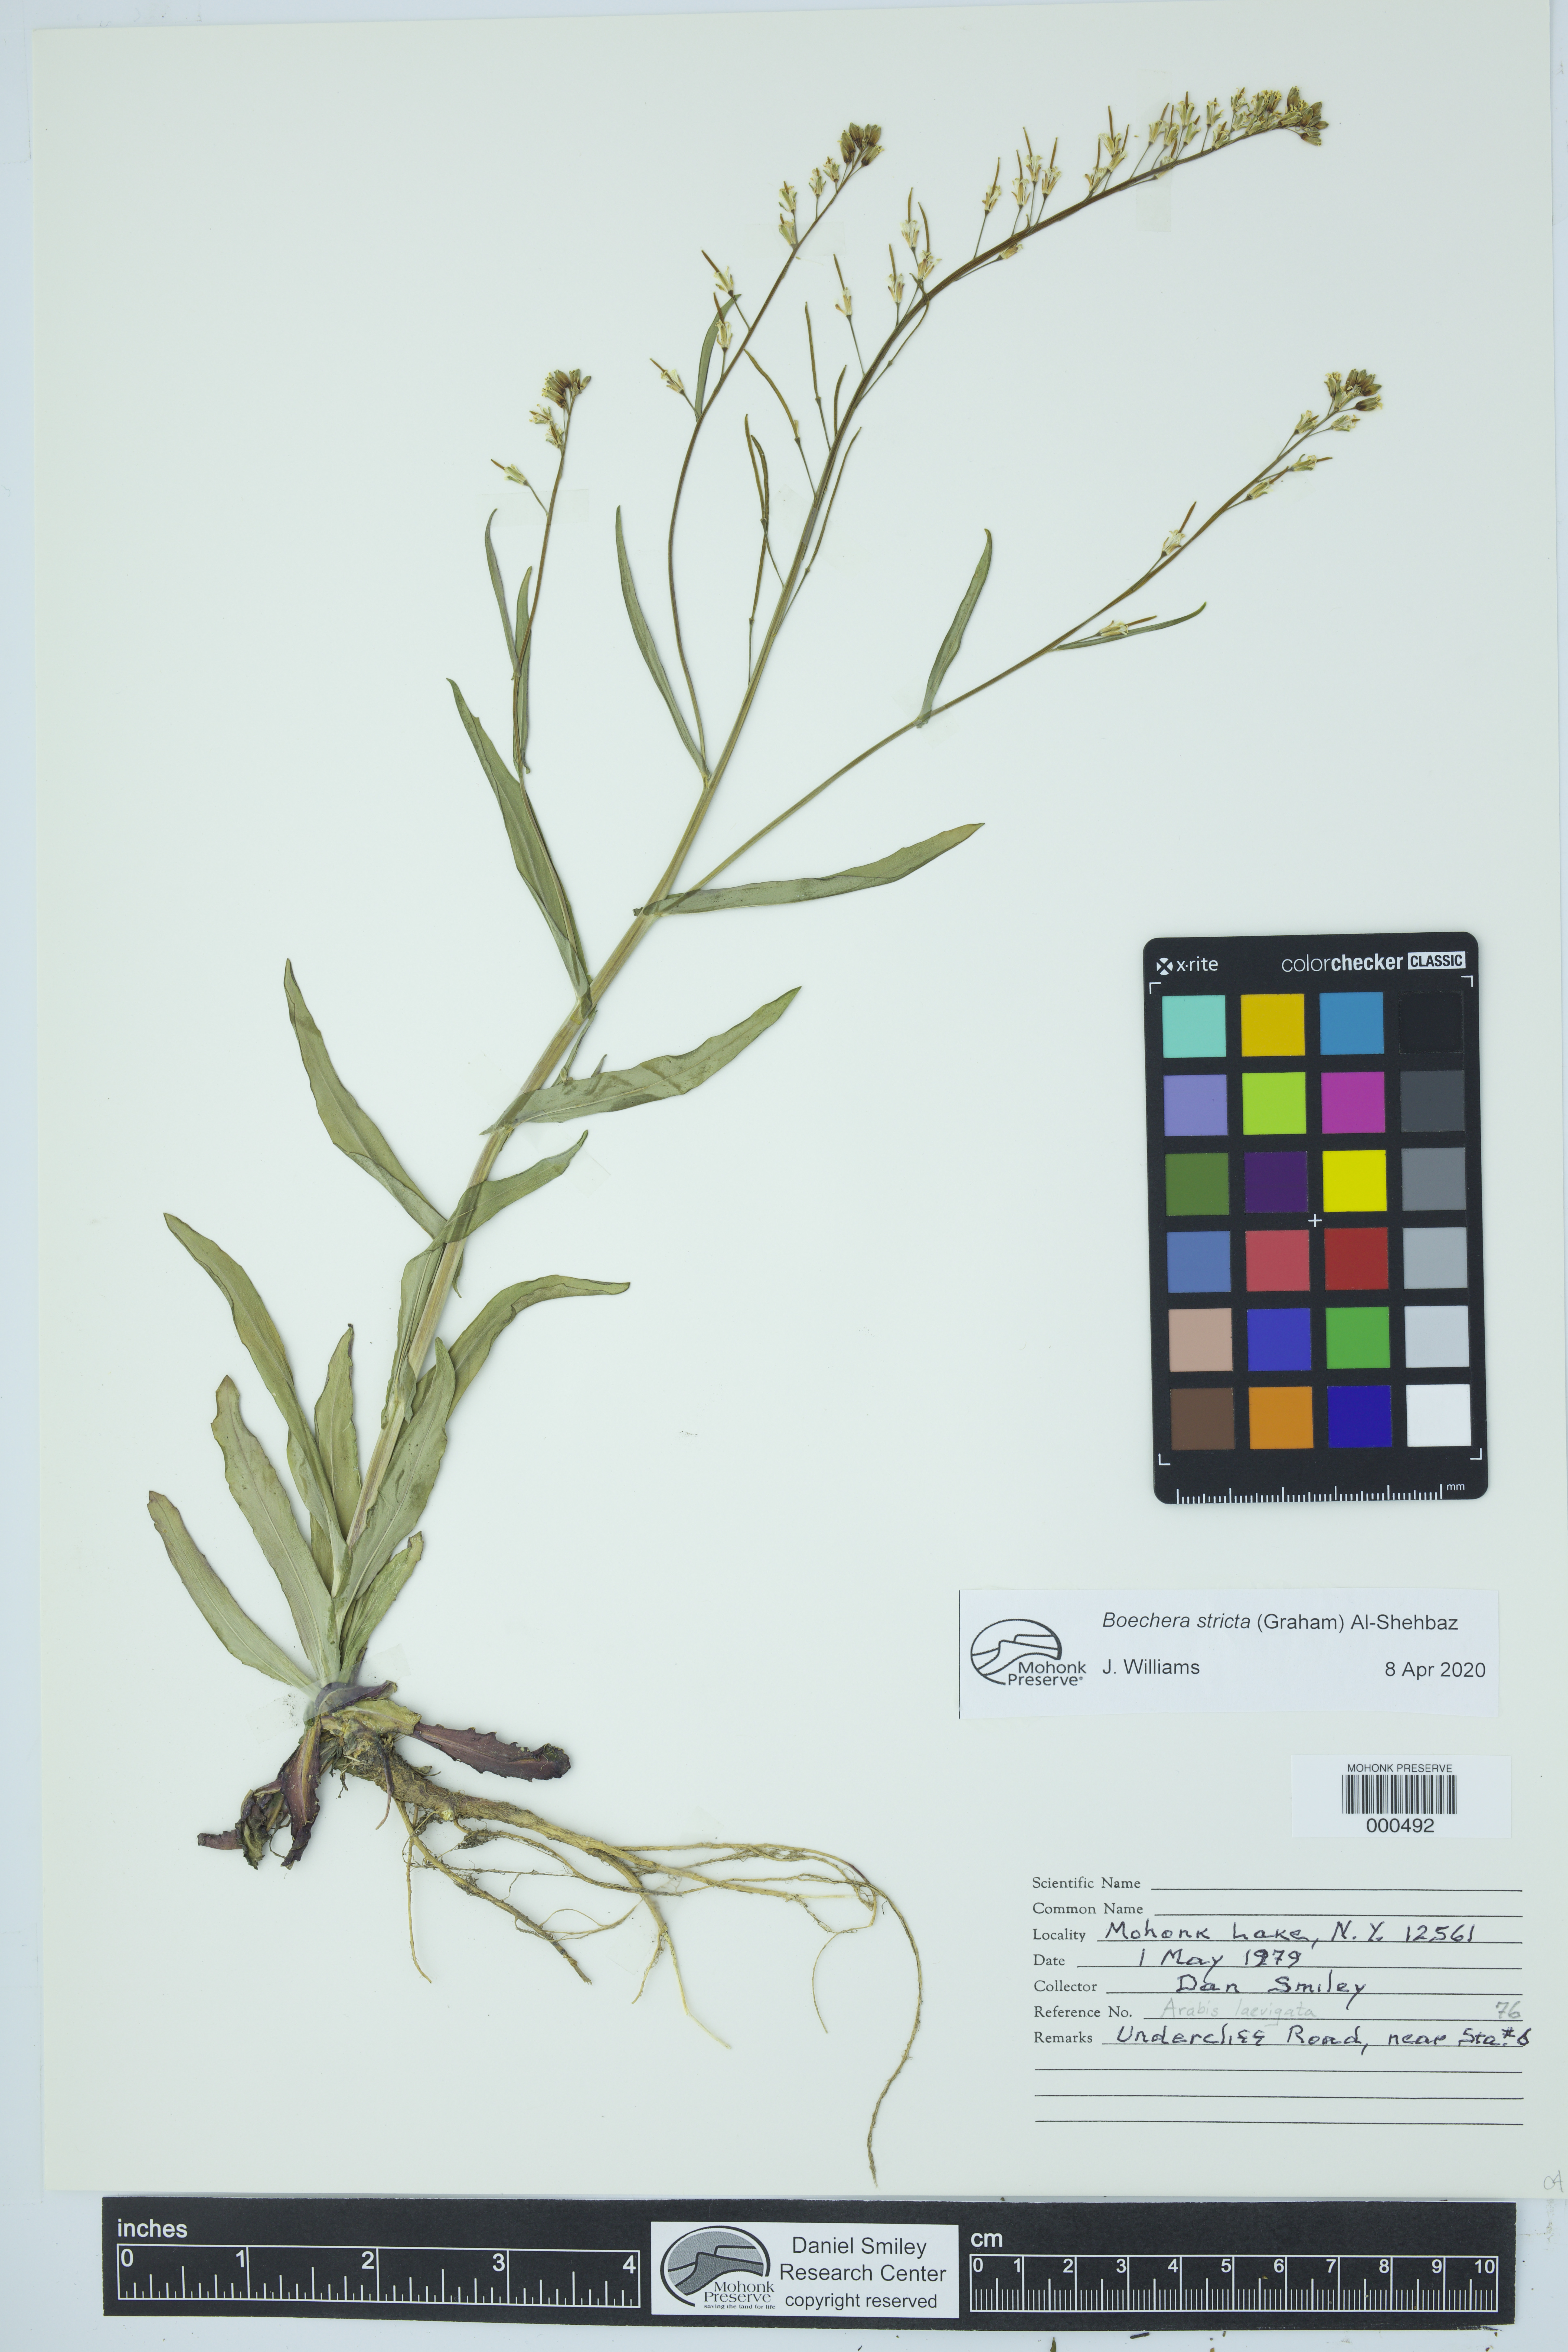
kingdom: Plantae
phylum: Tracheophyta
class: Magnoliopsida
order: Brassicales
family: Brassicaceae
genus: Boechera
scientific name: Boechera stricta
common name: Canadian rockcress
